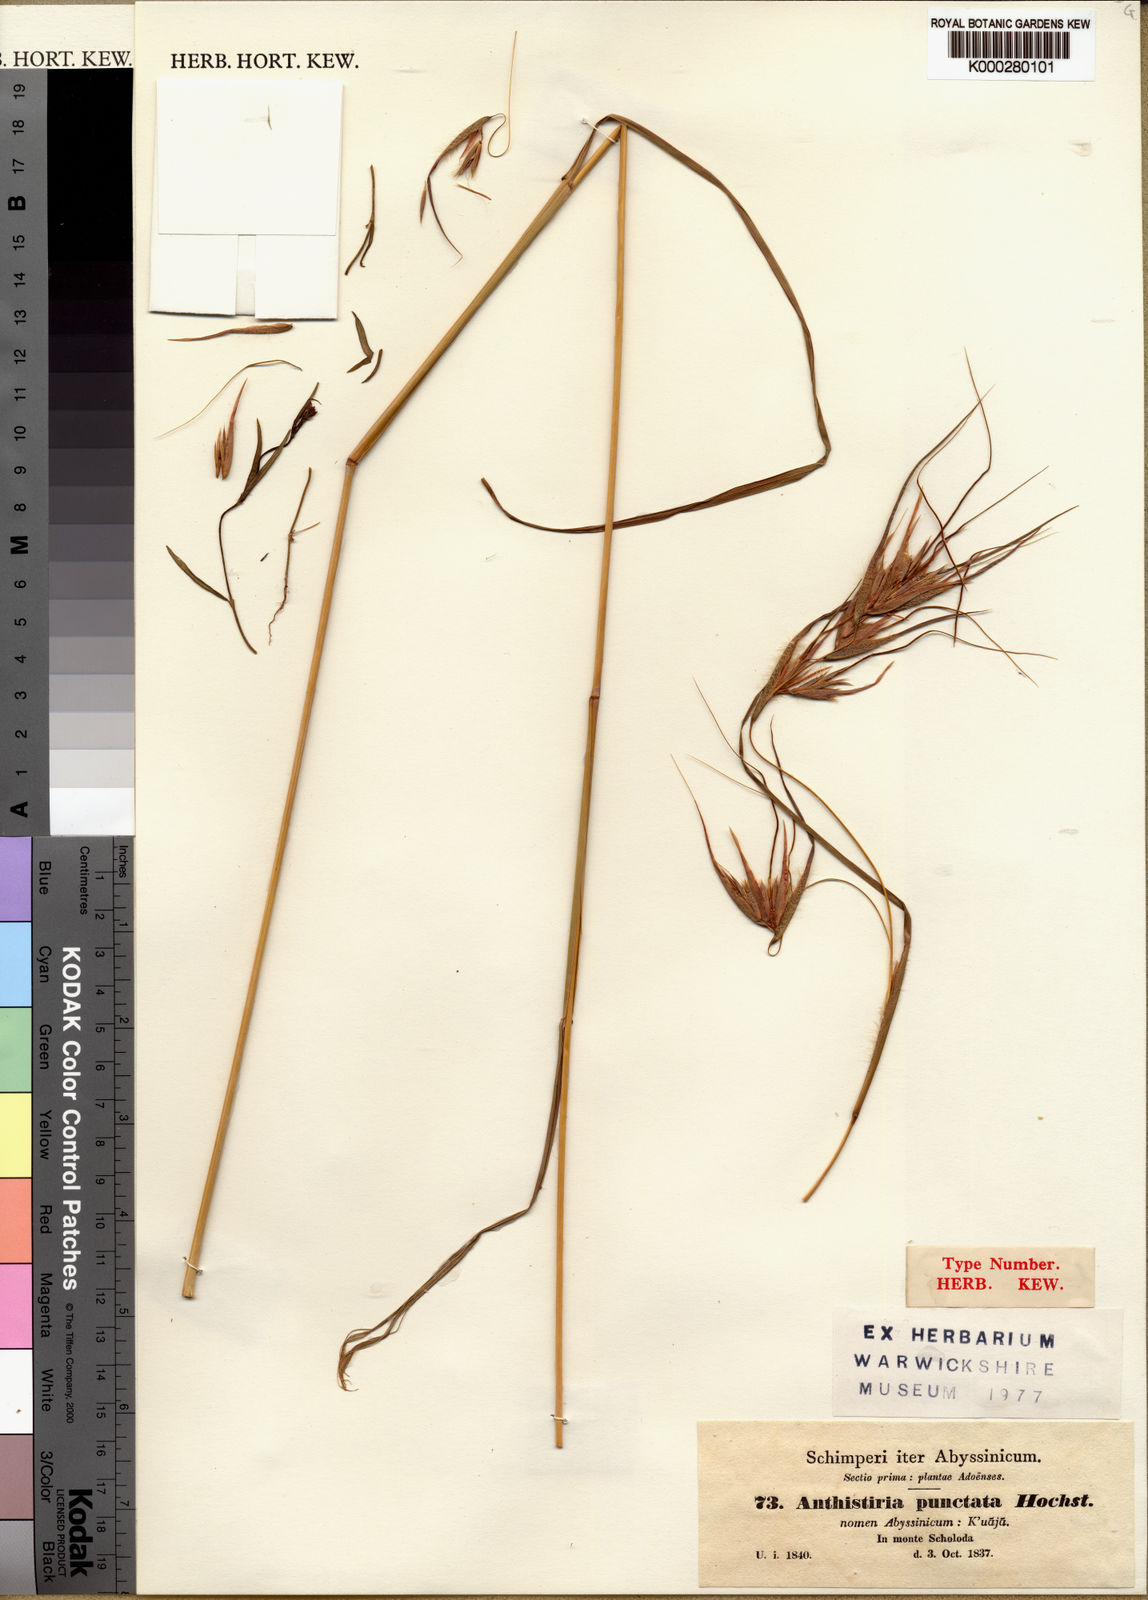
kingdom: Plantae
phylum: Tracheophyta
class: Liliopsida
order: Poales
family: Poaceae
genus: Themeda
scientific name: Themeda triandra
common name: Kangaroo grass
